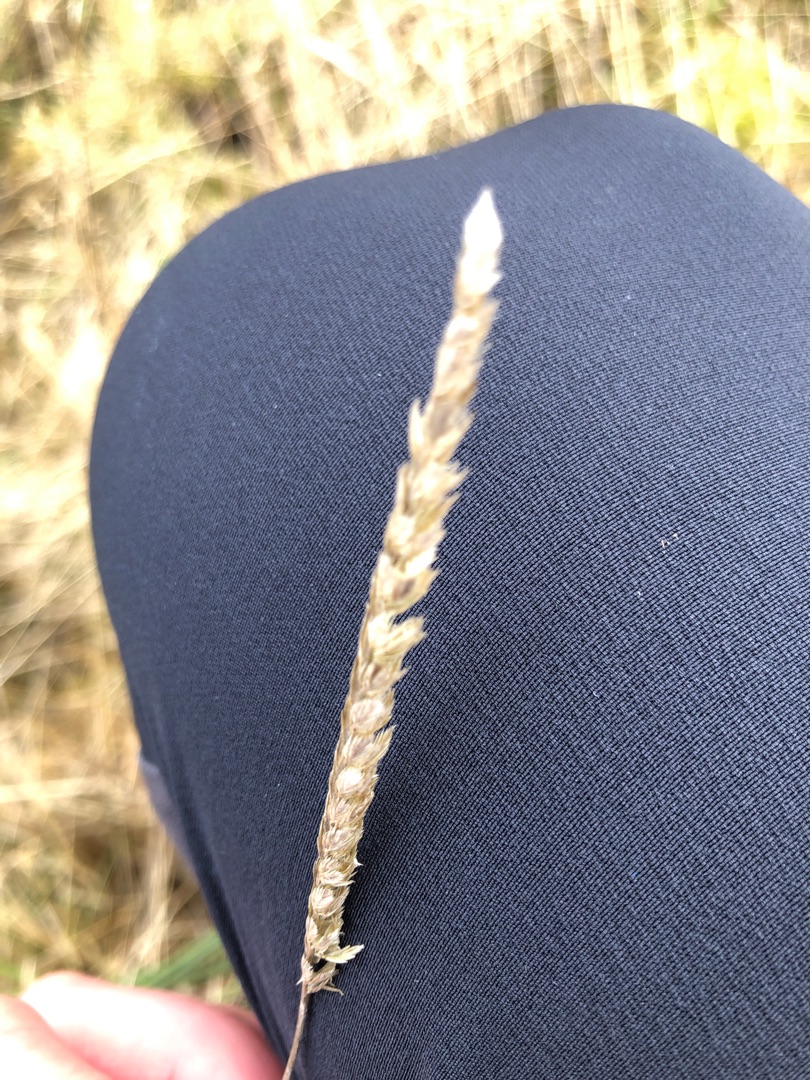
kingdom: Plantae
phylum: Tracheophyta
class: Liliopsida
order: Poales
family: Poaceae
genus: Cynosurus
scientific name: Cynosurus cristatus
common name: Kamgræs
